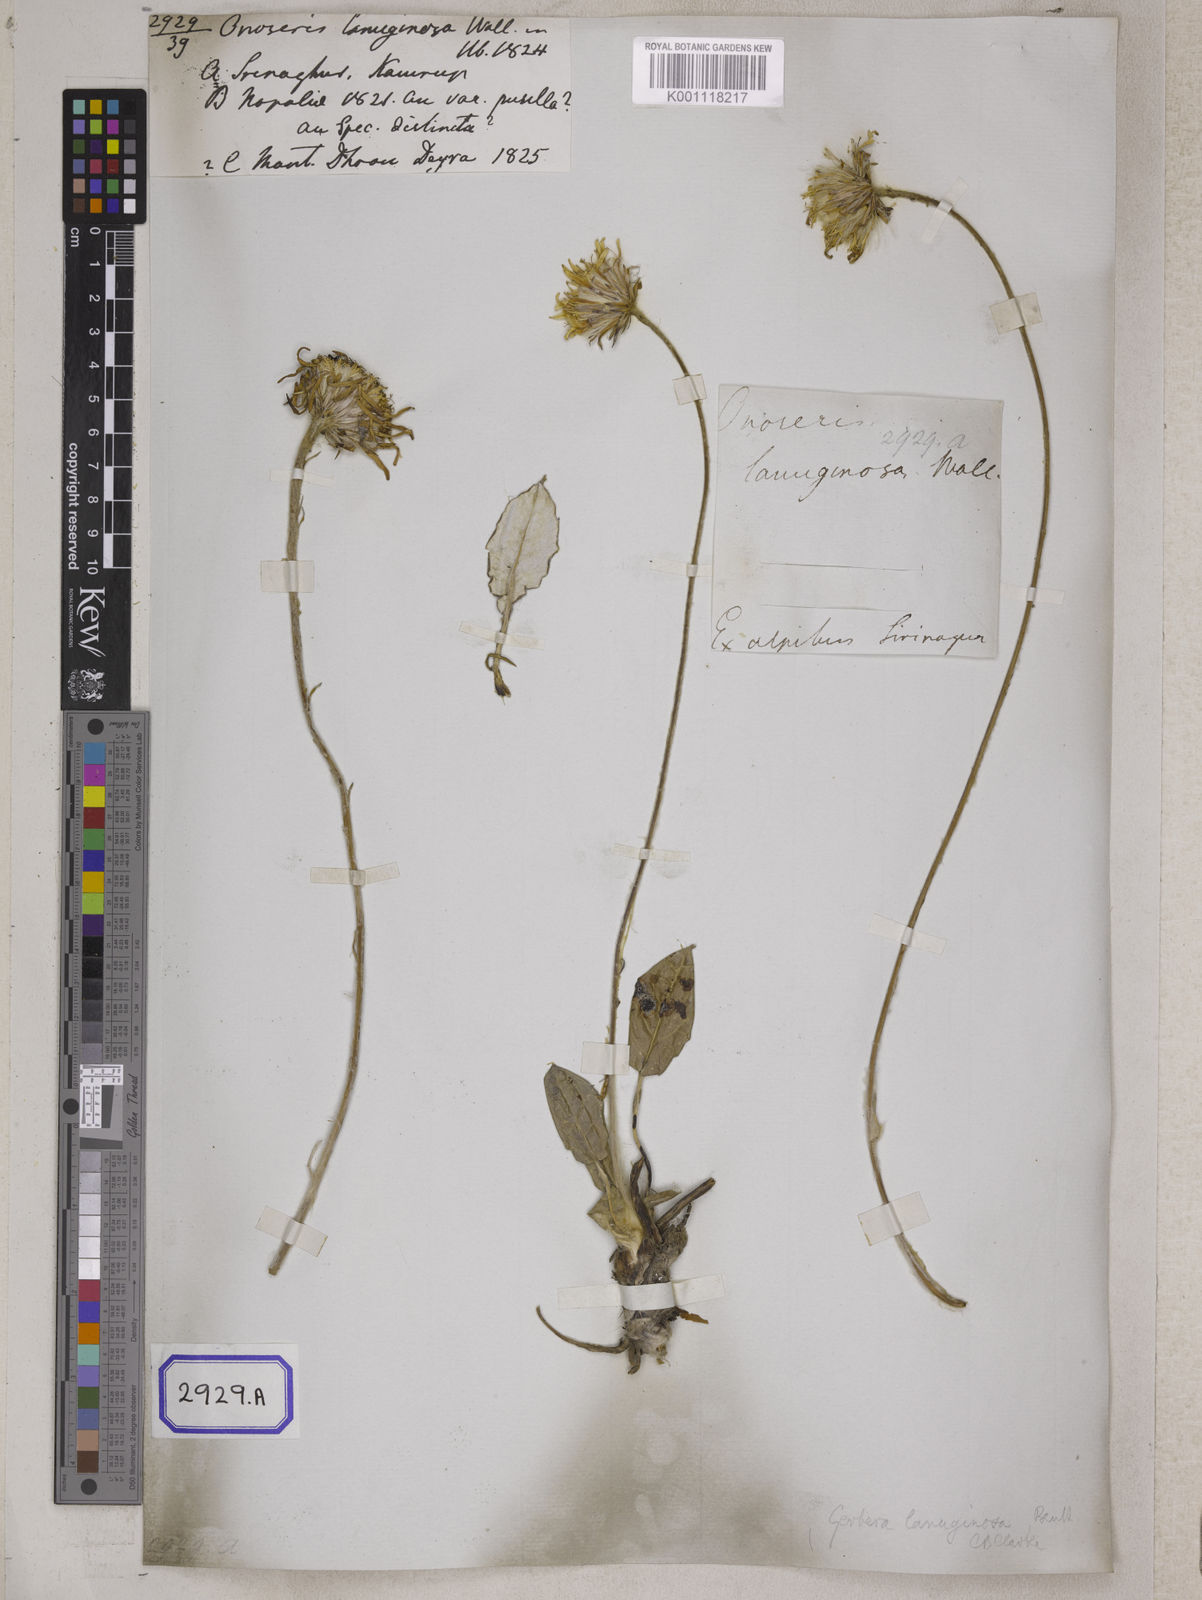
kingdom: Plantae
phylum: Tracheophyta
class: Magnoliopsida
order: Asterales
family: Asteraceae
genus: Onoseris
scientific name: Onoseris lanuginosa
